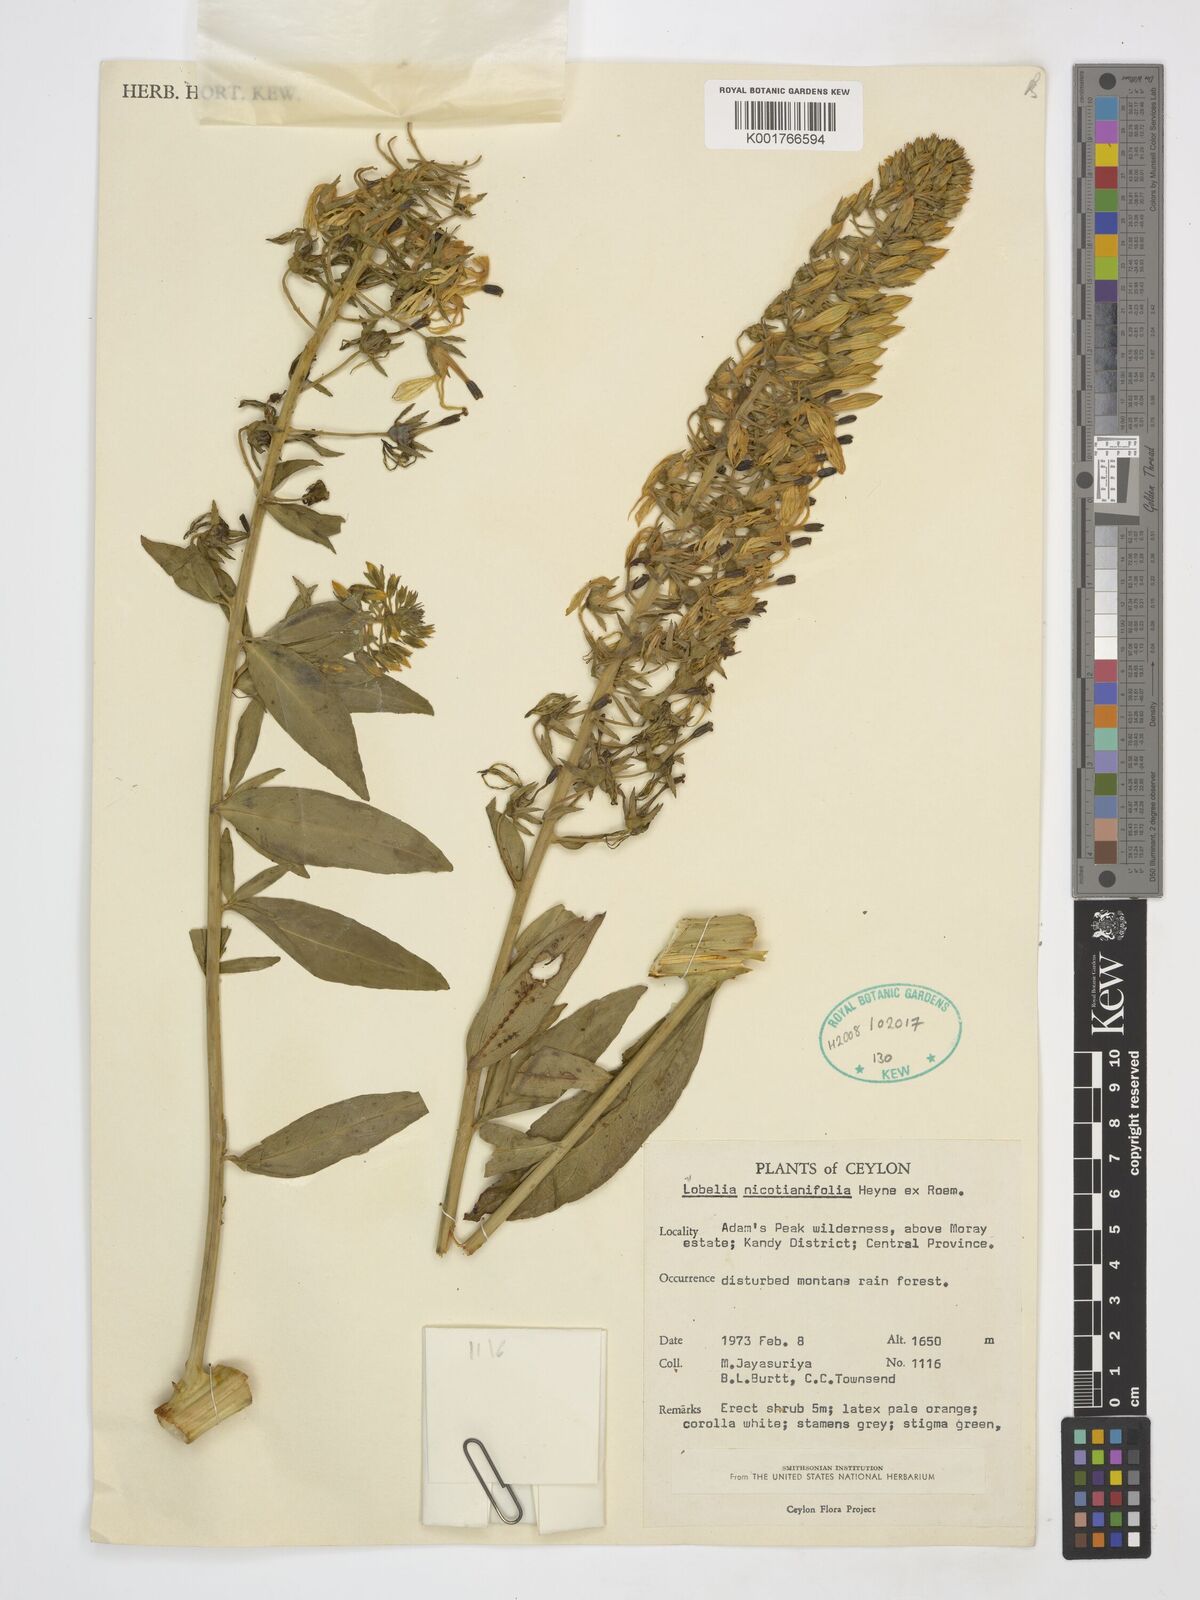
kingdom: Plantae
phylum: Tracheophyta
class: Magnoliopsida
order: Asterales
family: Campanulaceae
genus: Lobelia
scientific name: Lobelia nicotianifolia
